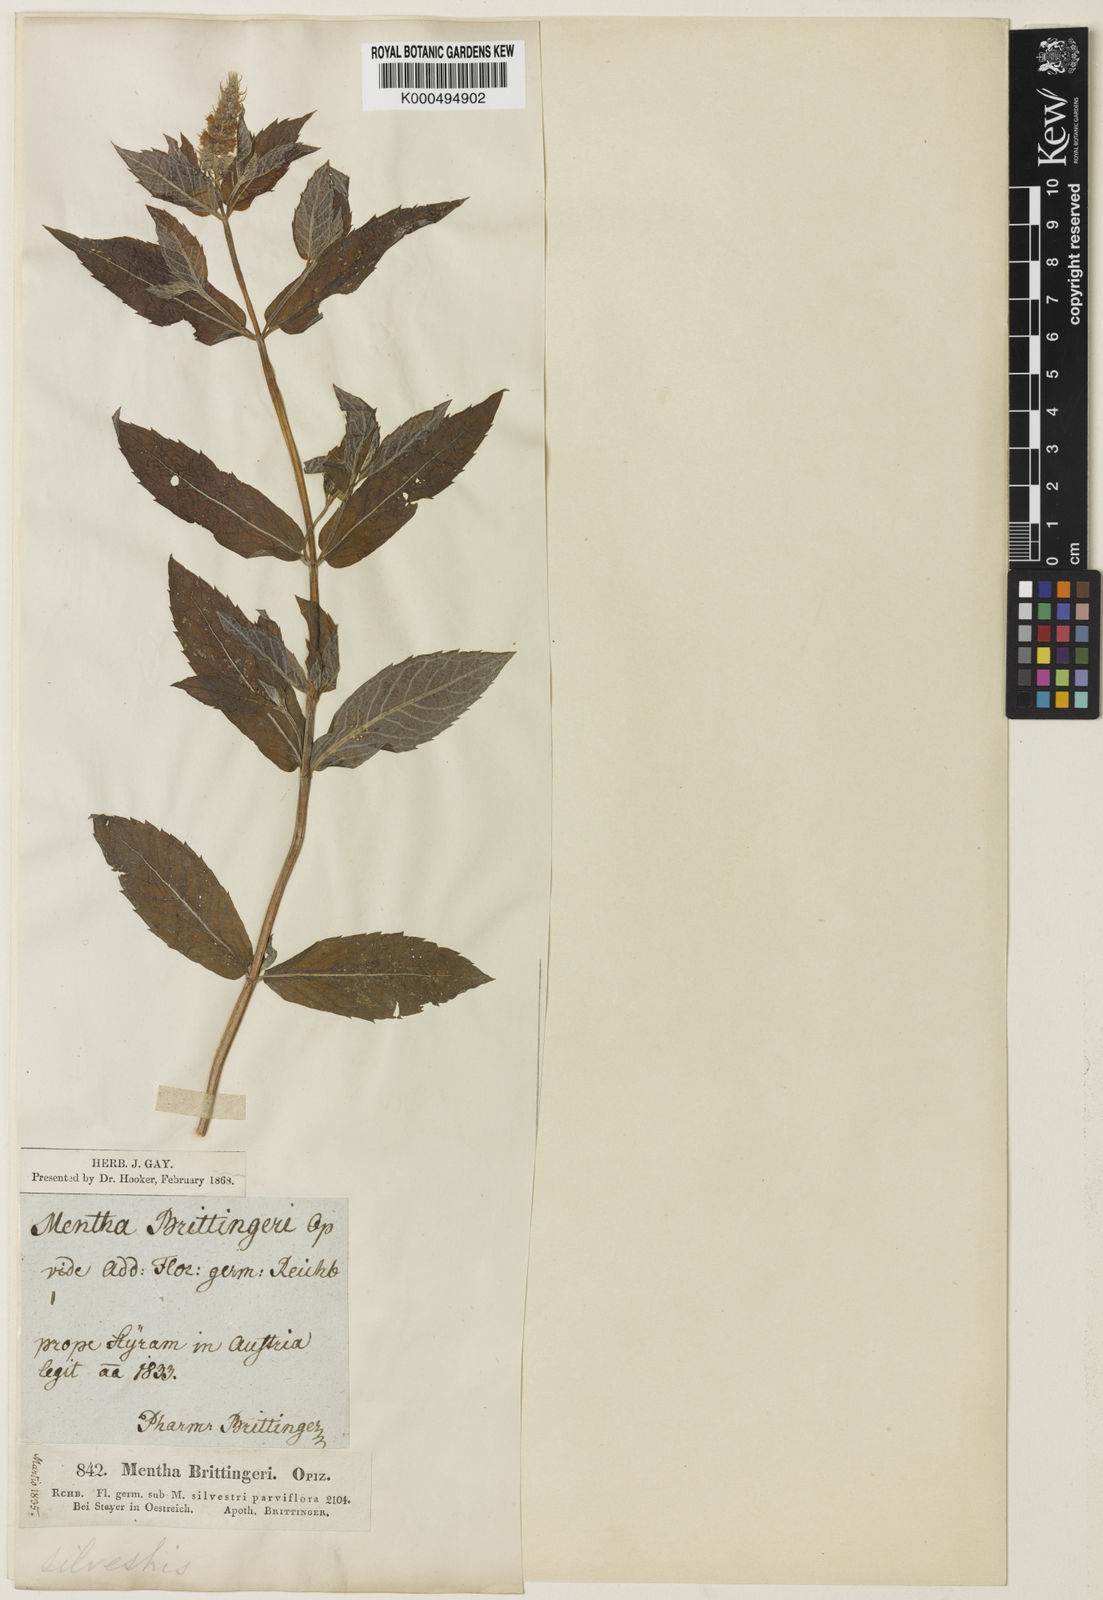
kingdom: Plantae
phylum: Tracheophyta
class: Magnoliopsida
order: Lamiales
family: Lamiaceae
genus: Mentha
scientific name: Mentha
